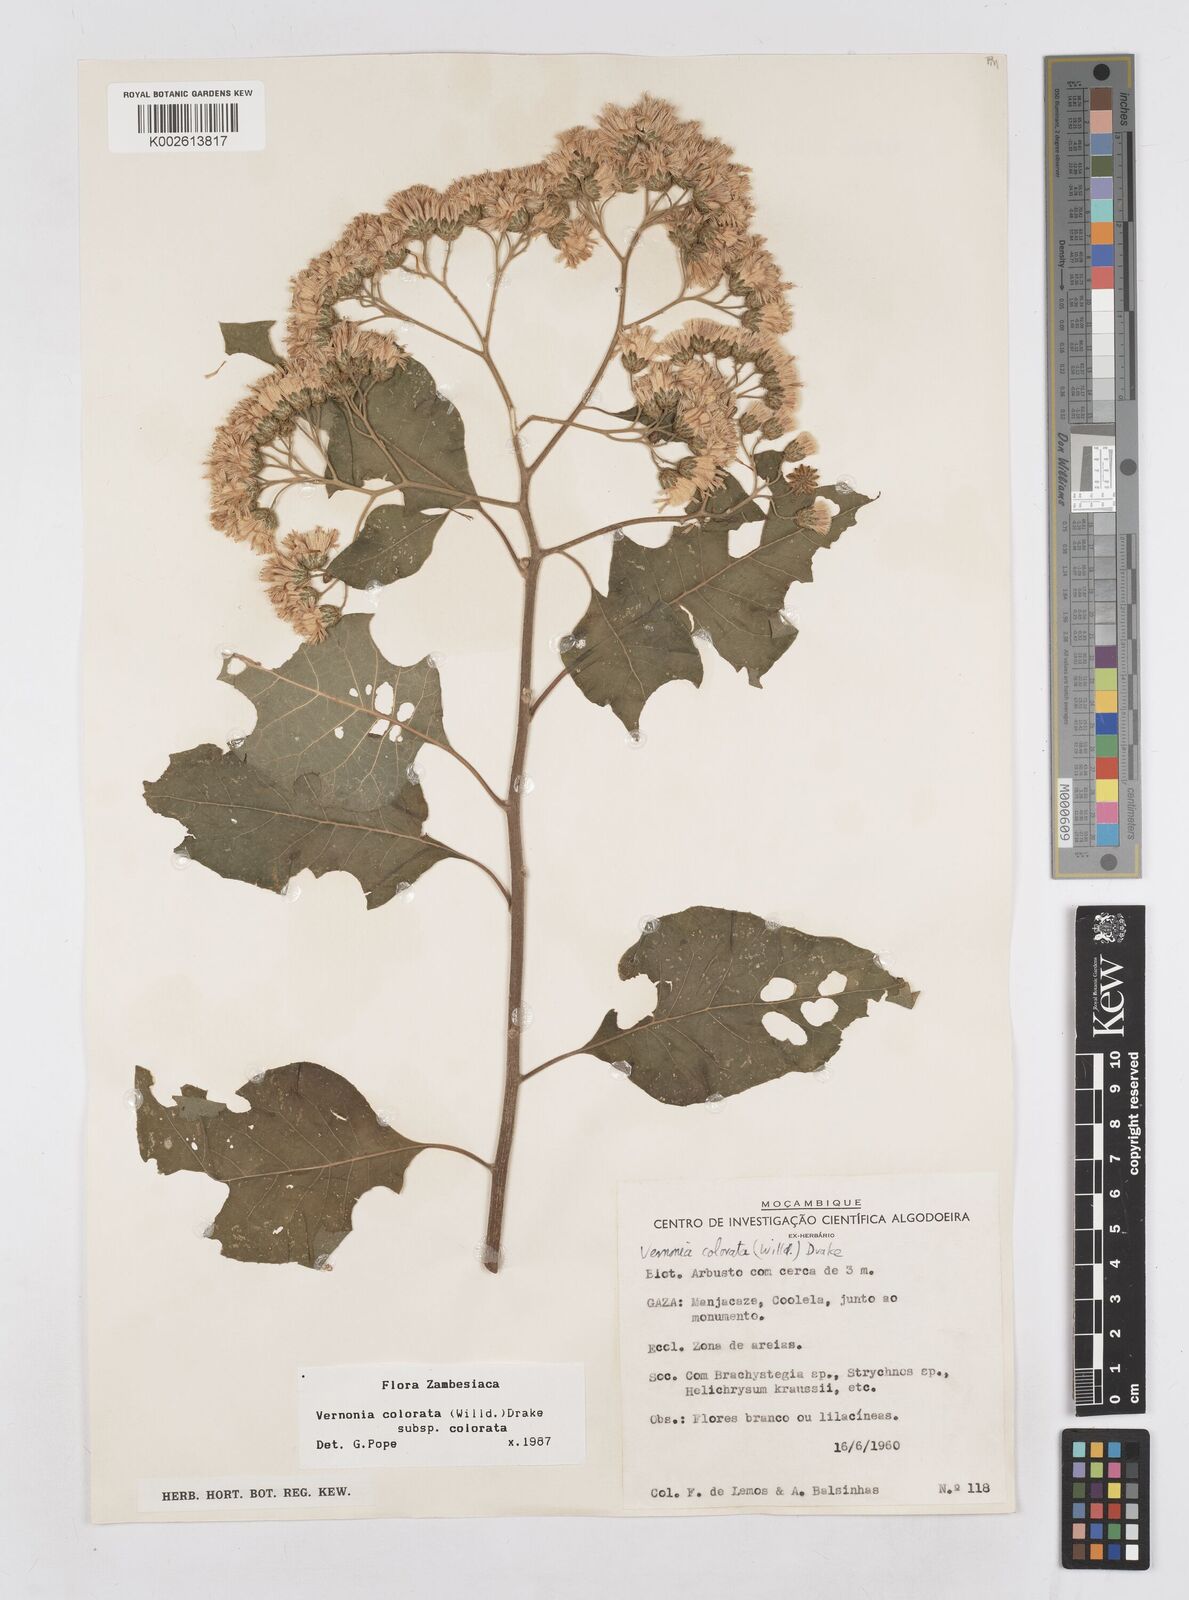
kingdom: Plantae
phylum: Tracheophyta
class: Magnoliopsida
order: Asterales
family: Asteraceae
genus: Vernonia
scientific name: Vernonia colorata
